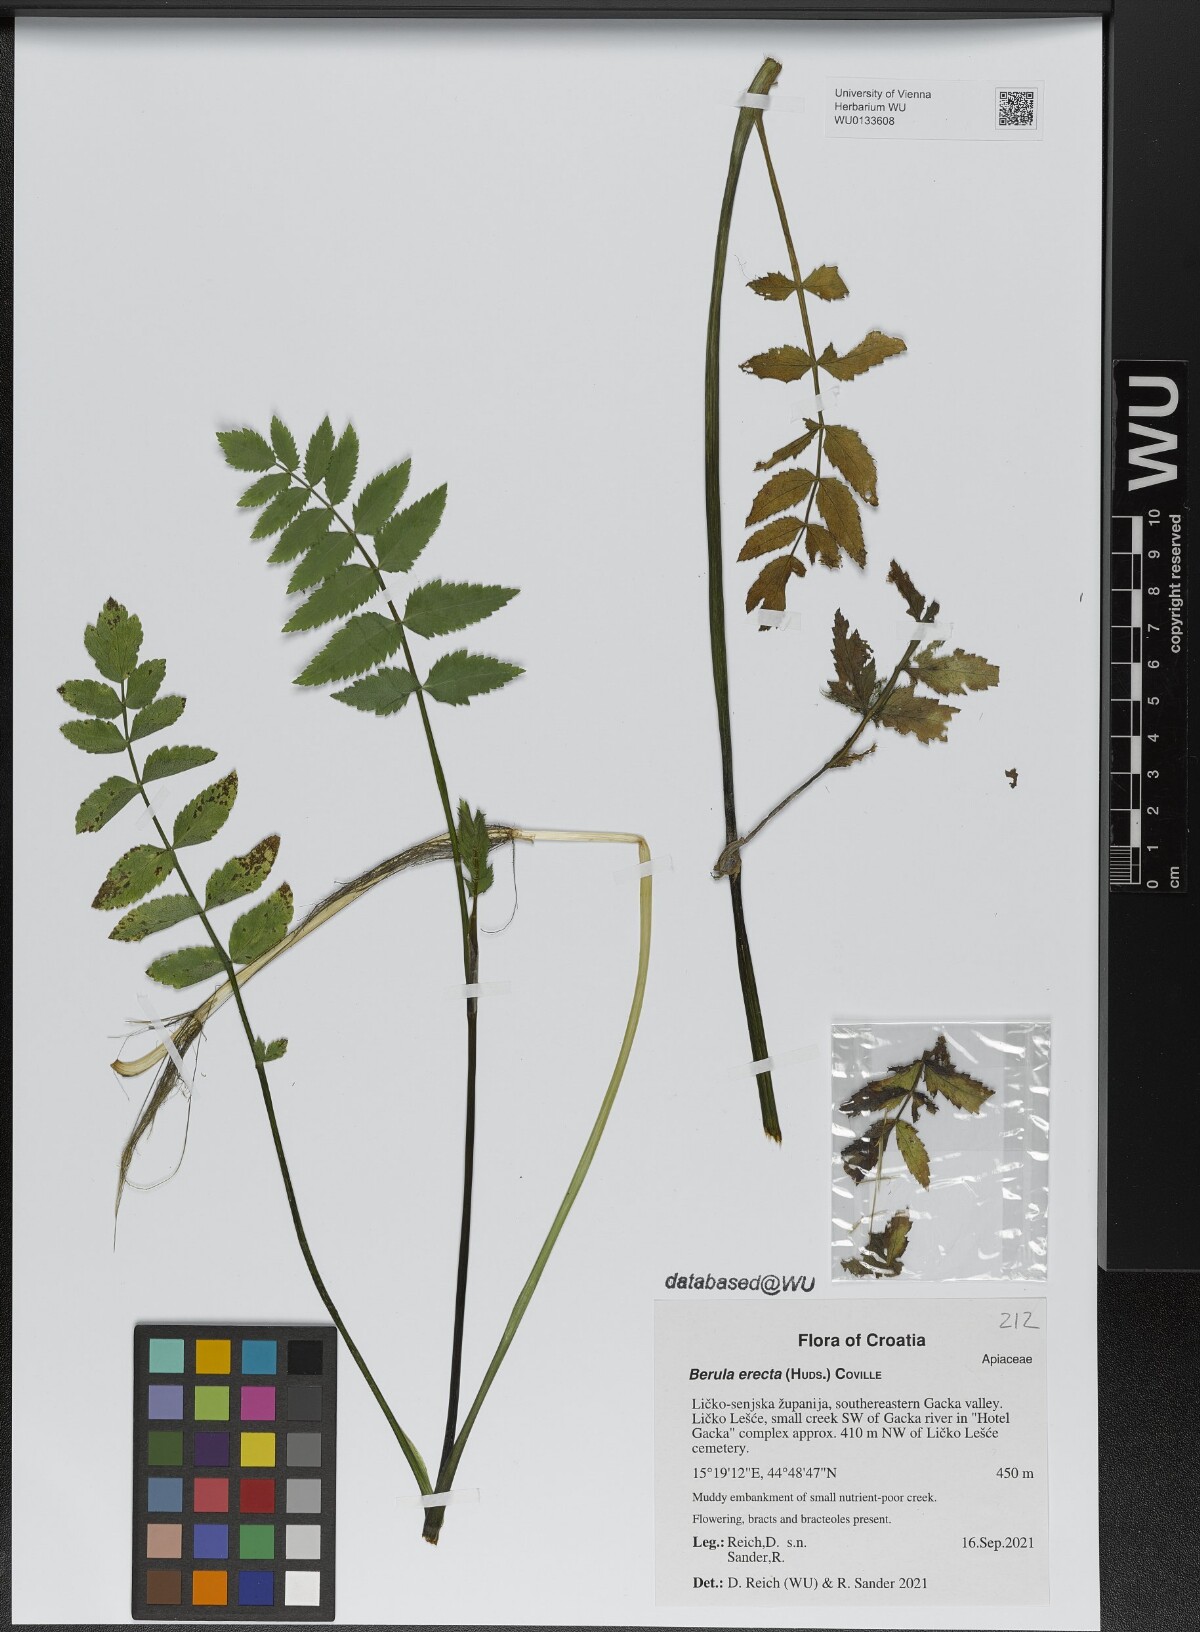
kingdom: Plantae
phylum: Tracheophyta
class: Magnoliopsida
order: Apiales
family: Apiaceae
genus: Berula
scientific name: Berula erecta
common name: Lesser water-parsnip
